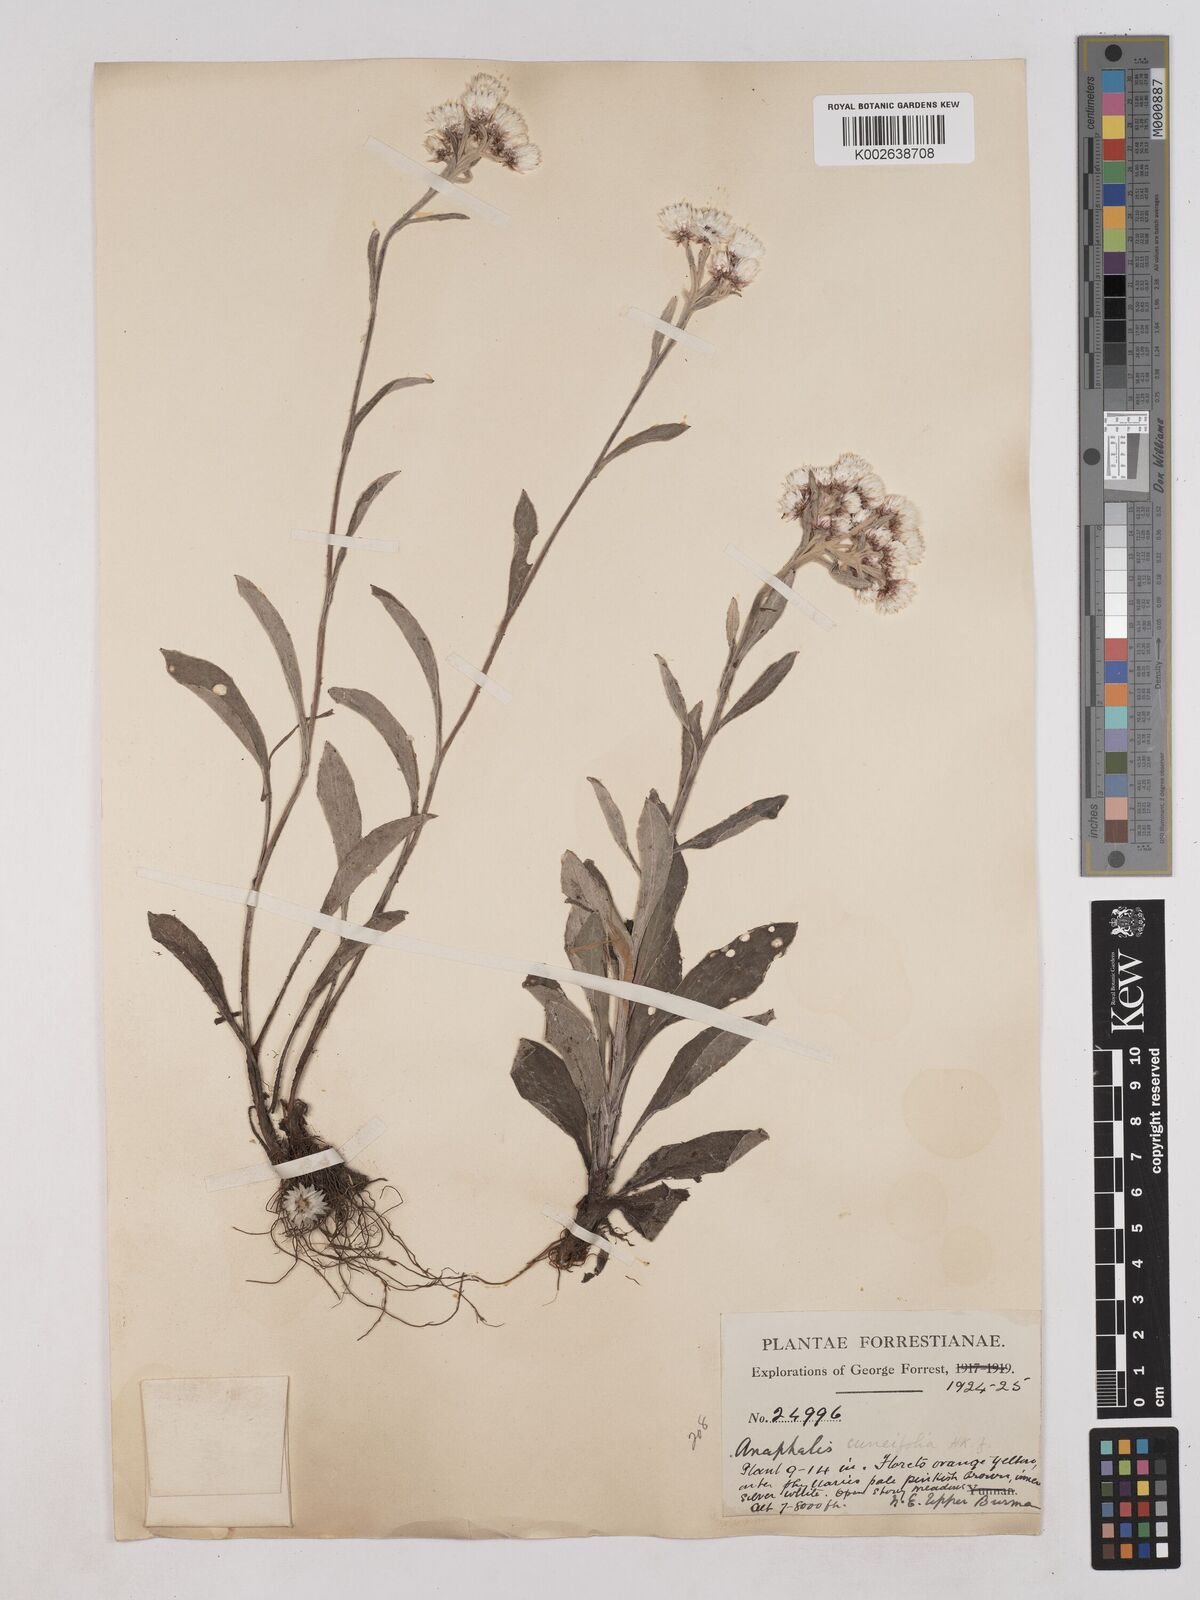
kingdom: Plantae
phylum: Tracheophyta
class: Magnoliopsida
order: Asterales
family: Asteraceae
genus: Anaphalis
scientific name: Anaphalis triplinervis
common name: Pearly everlasting
